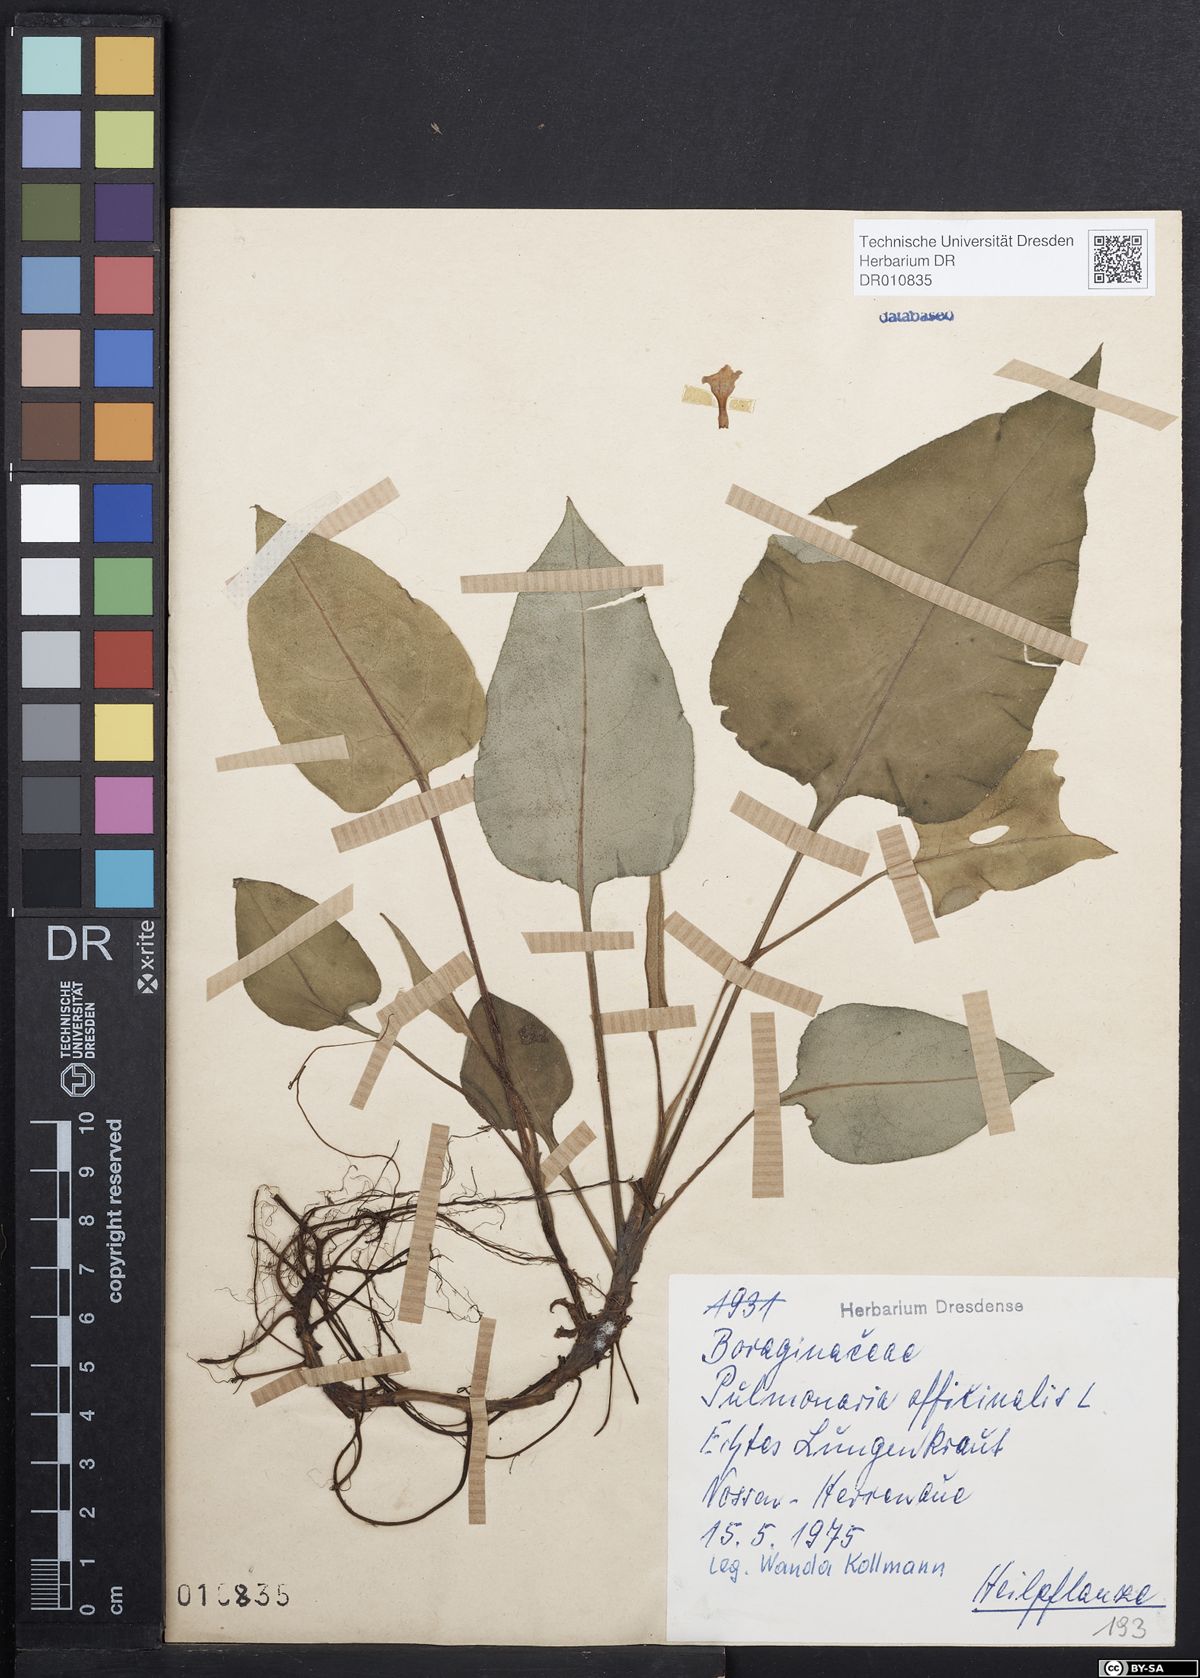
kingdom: Plantae
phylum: Tracheophyta
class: Magnoliopsida
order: Boraginales
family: Boraginaceae
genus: Pulmonaria
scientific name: Pulmonaria obscura
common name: Suffolk lungwort
